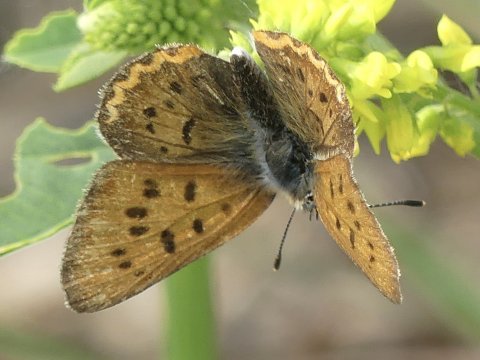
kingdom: Animalia
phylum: Arthropoda
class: Insecta
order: Lepidoptera
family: Sesiidae
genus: Sesia
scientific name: Sesia Lycaena helloides
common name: Purplish Copper
